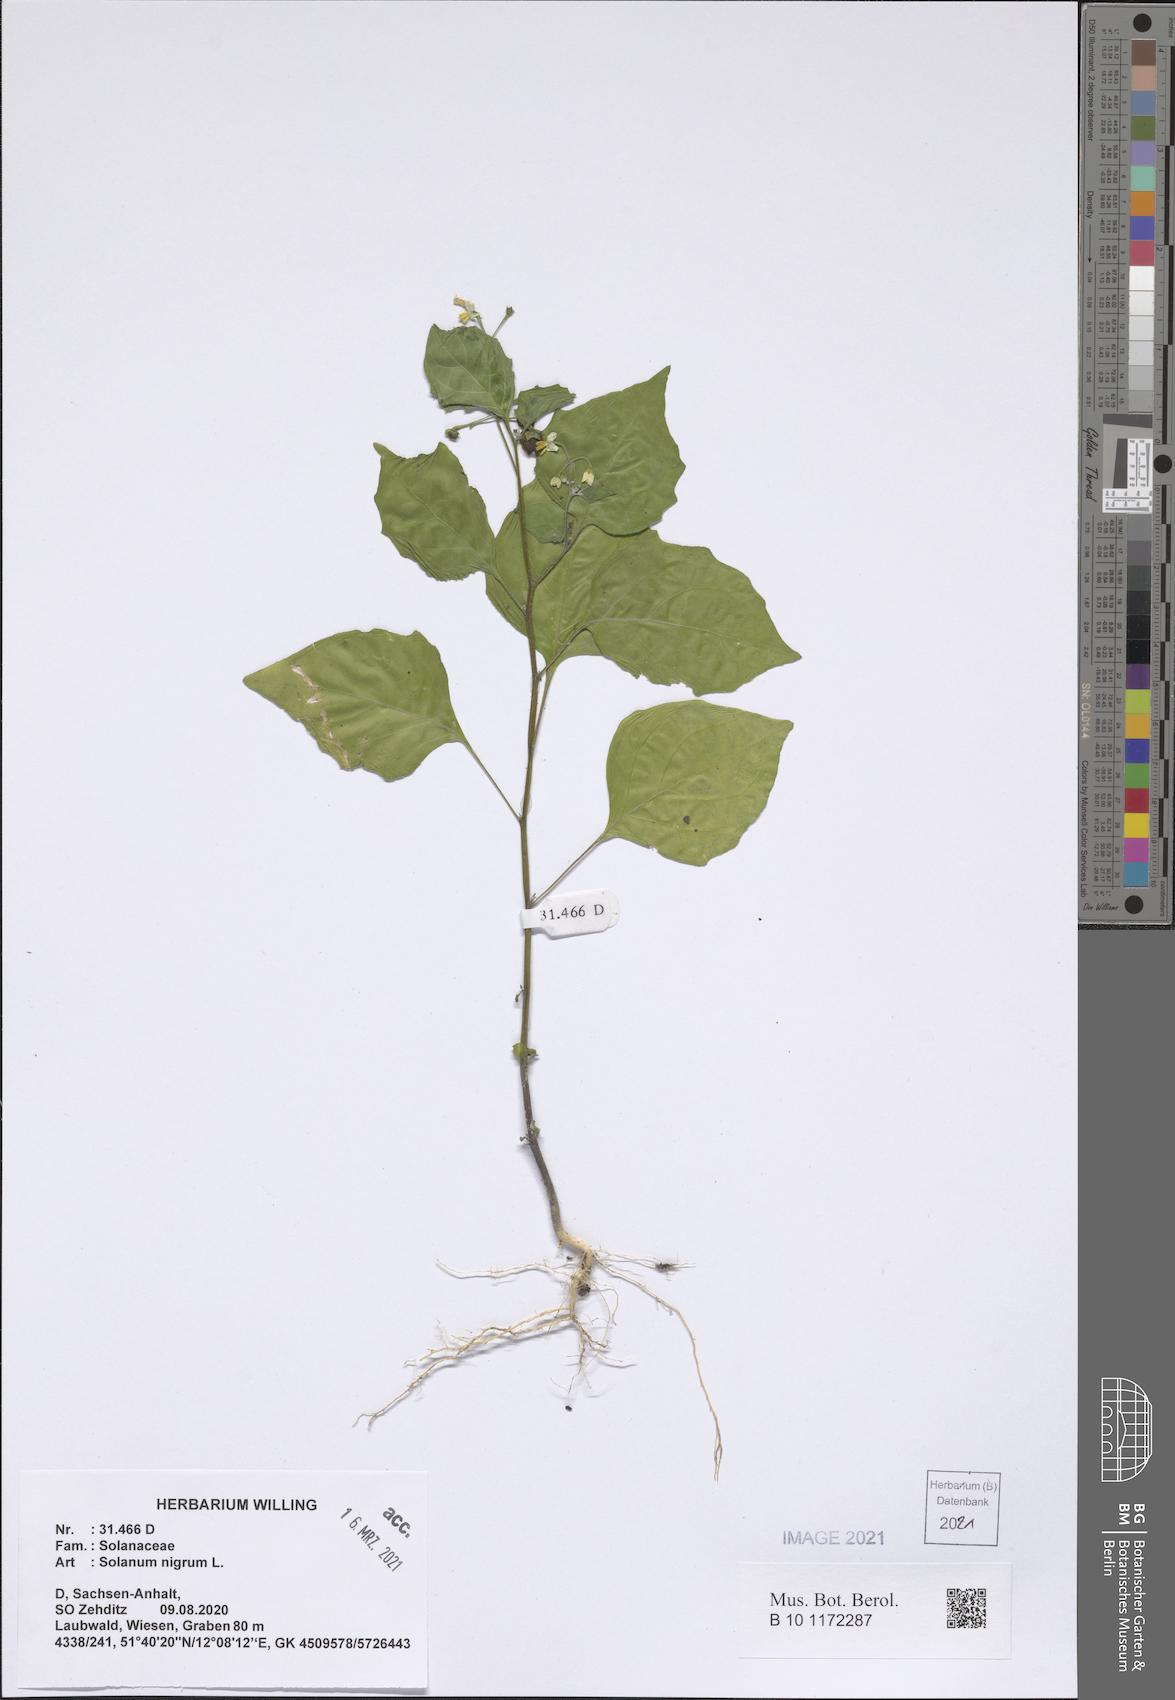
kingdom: Plantae
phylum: Tracheophyta
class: Magnoliopsida
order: Solanales
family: Solanaceae
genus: Solanum
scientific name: Solanum nigrum
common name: Black nightshade
